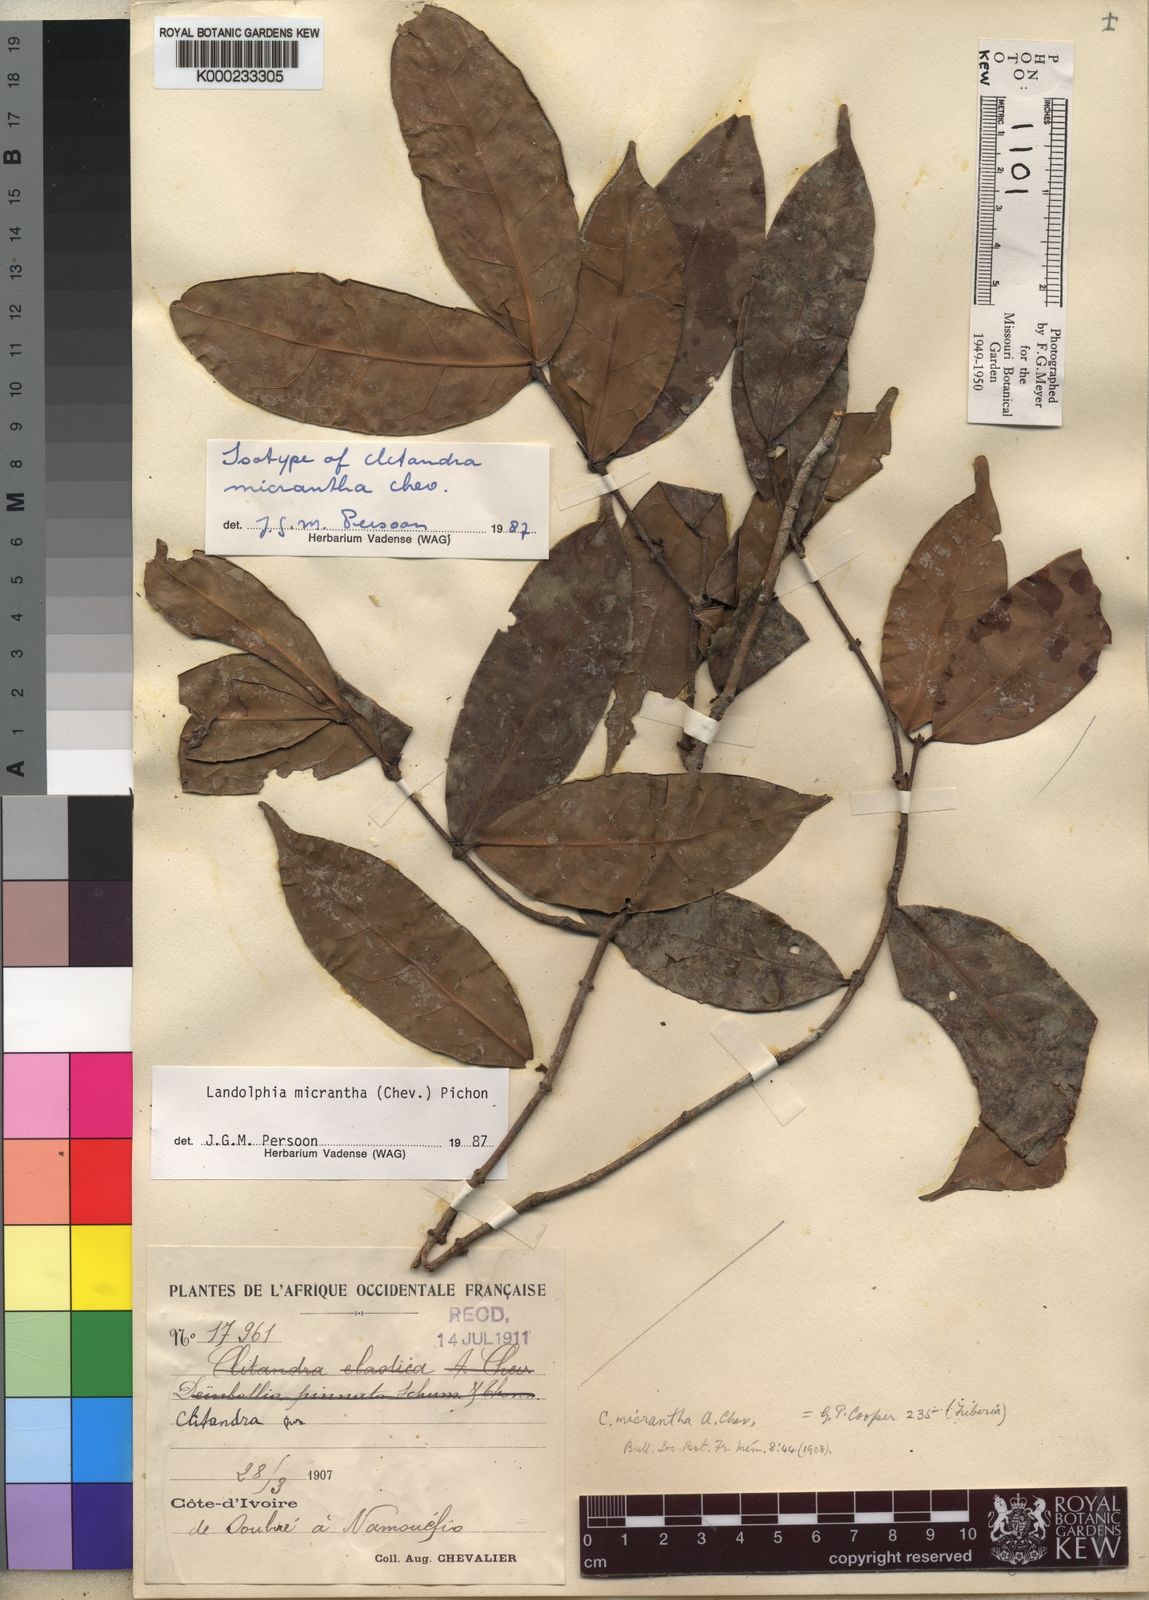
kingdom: Plantae
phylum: Tracheophyta
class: Magnoliopsida
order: Gentianales
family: Apocynaceae
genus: Landolphia
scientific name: Landolphia micrantha
